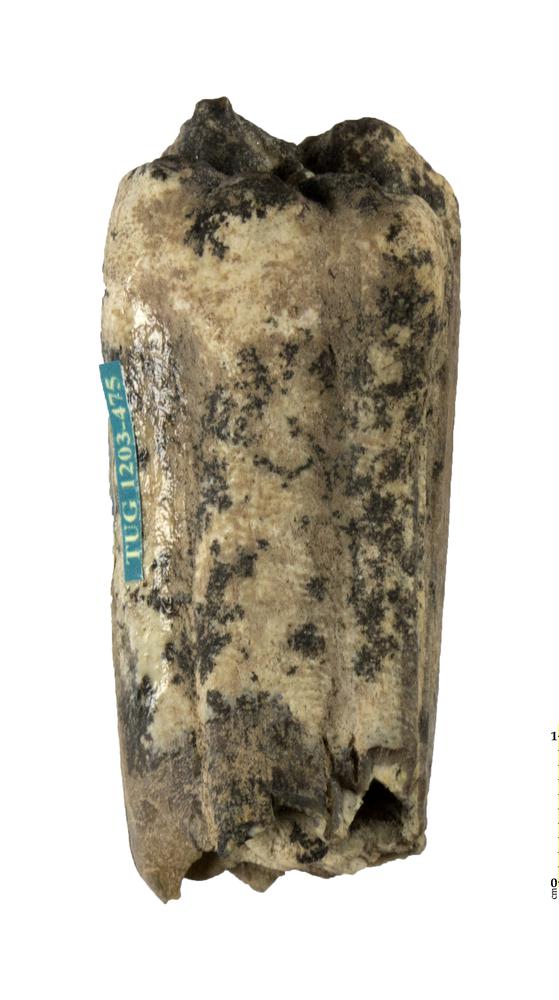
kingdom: Animalia
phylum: Chordata
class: Mammalia
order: Perissodactyla
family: Equidae
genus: Hipparion
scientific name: Hipparion
